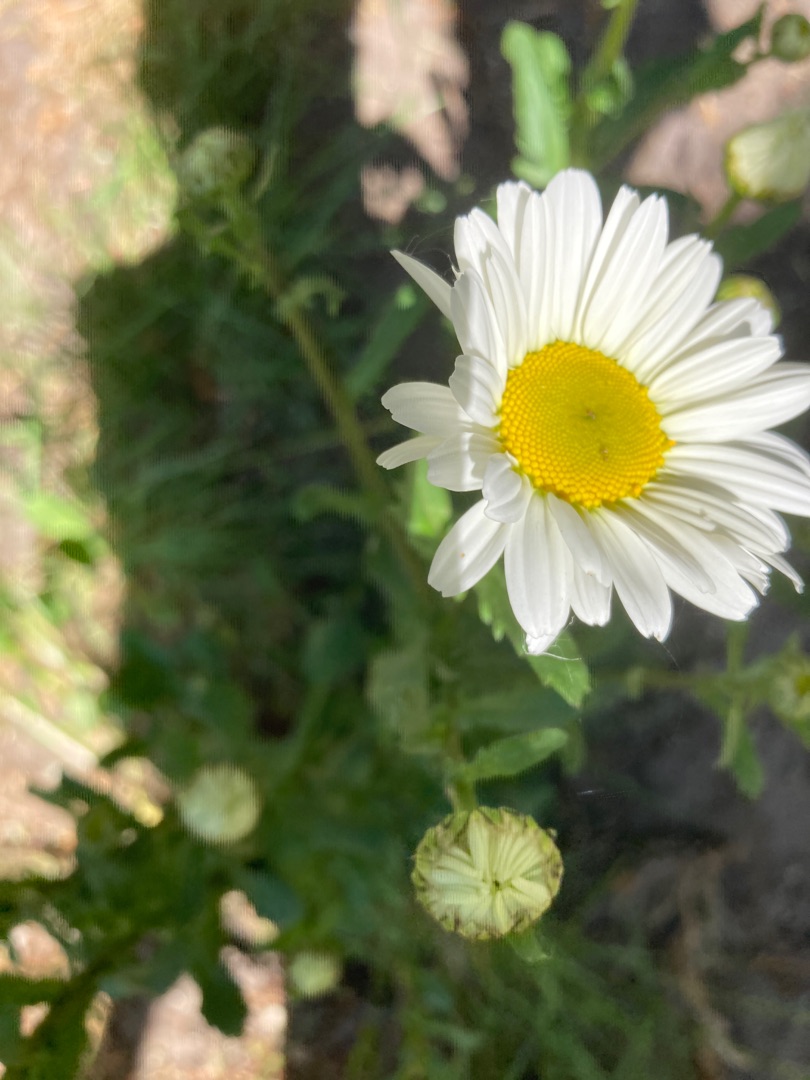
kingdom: Plantae
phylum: Tracheophyta
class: Magnoliopsida
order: Asterales
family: Asteraceae
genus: Leucanthemum
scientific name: Leucanthemum vulgare
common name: Hvid okseøje
